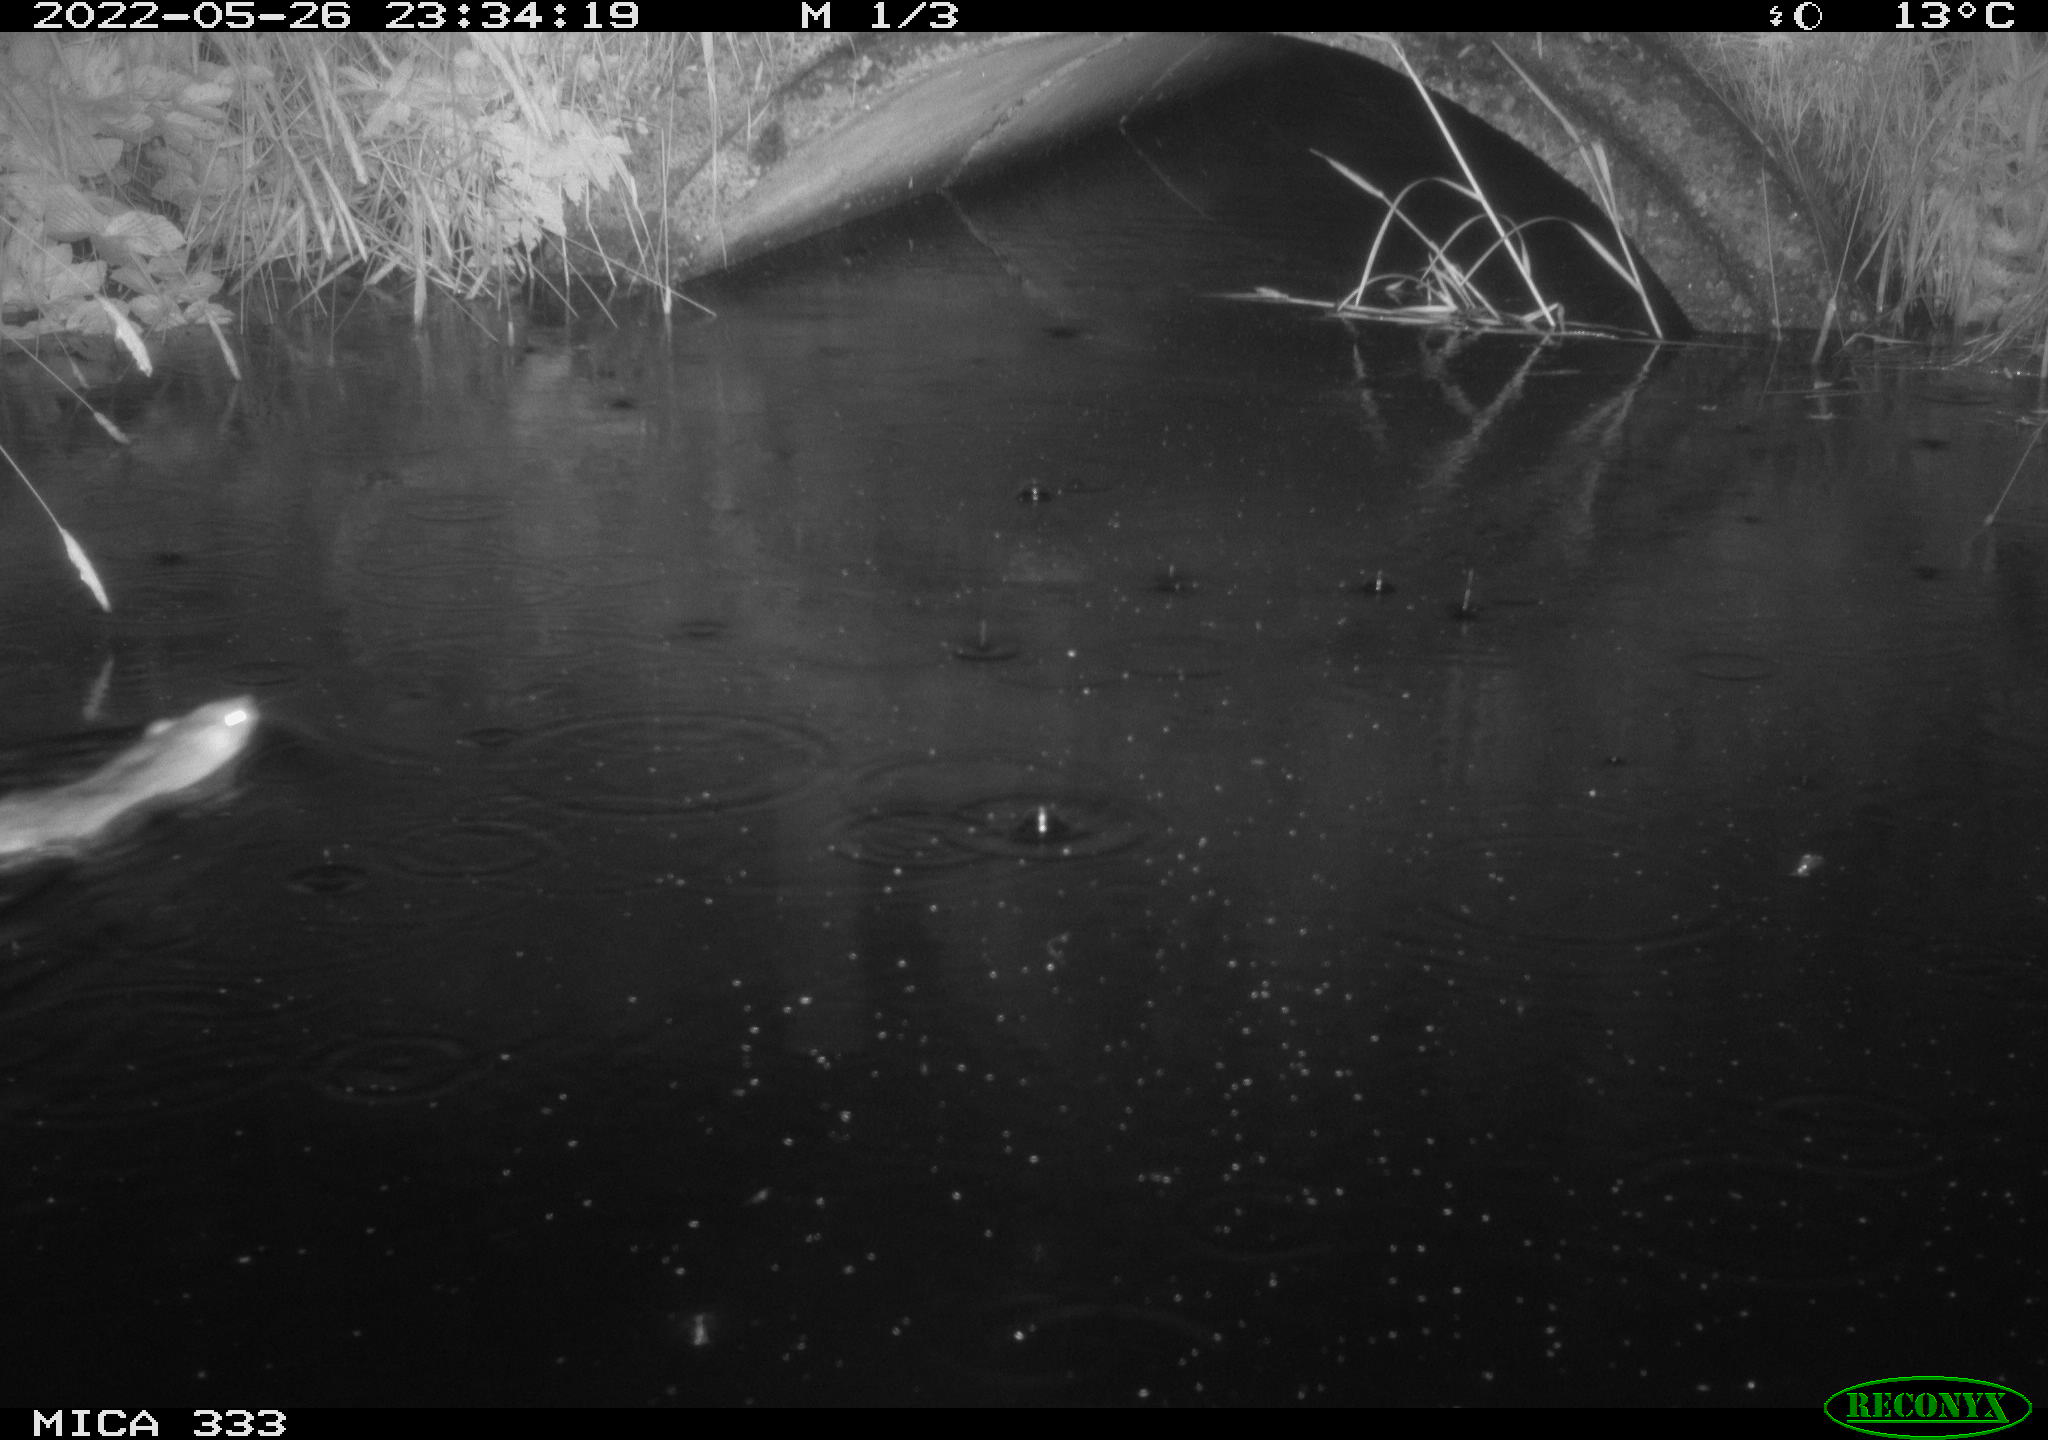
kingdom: Animalia
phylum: Chordata
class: Mammalia
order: Rodentia
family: Muridae
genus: Rattus
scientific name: Rattus norvegicus
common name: Brown rat
